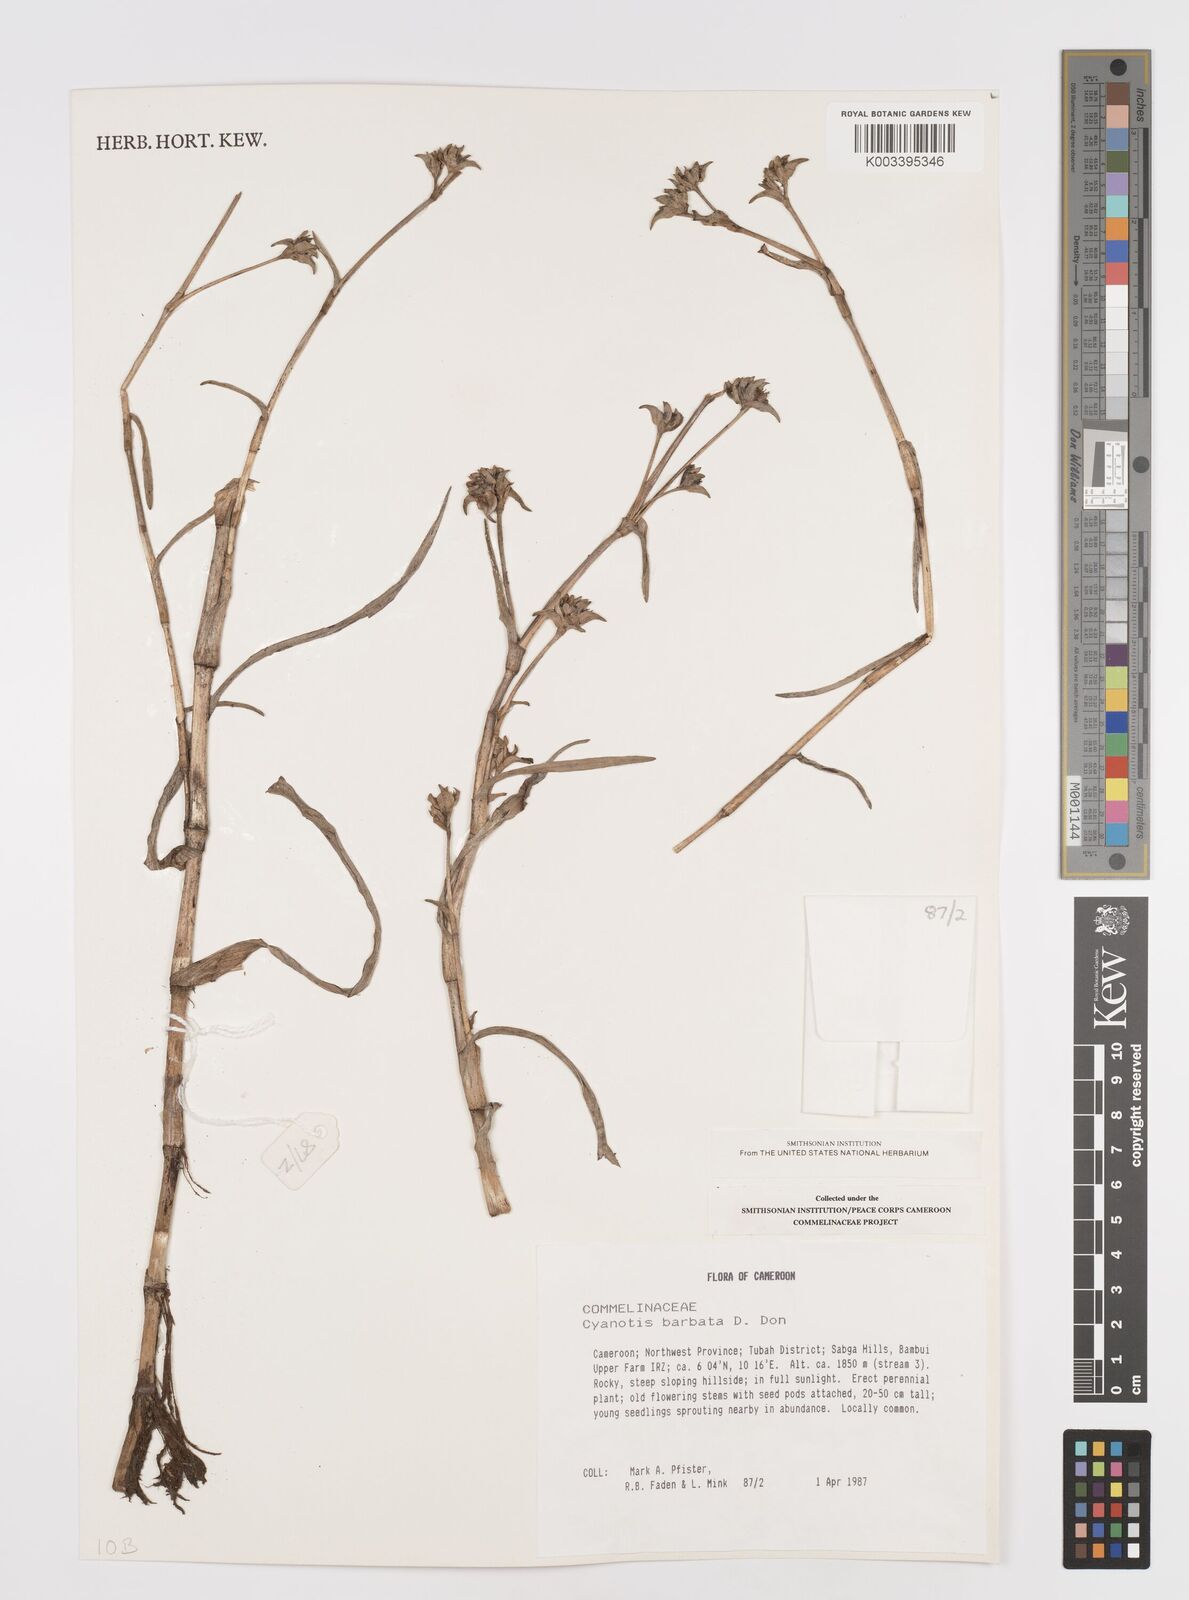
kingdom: Plantae
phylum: Tracheophyta
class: Liliopsida
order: Commelinales
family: Commelinaceae
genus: Cyanotis
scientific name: Cyanotis vaga
